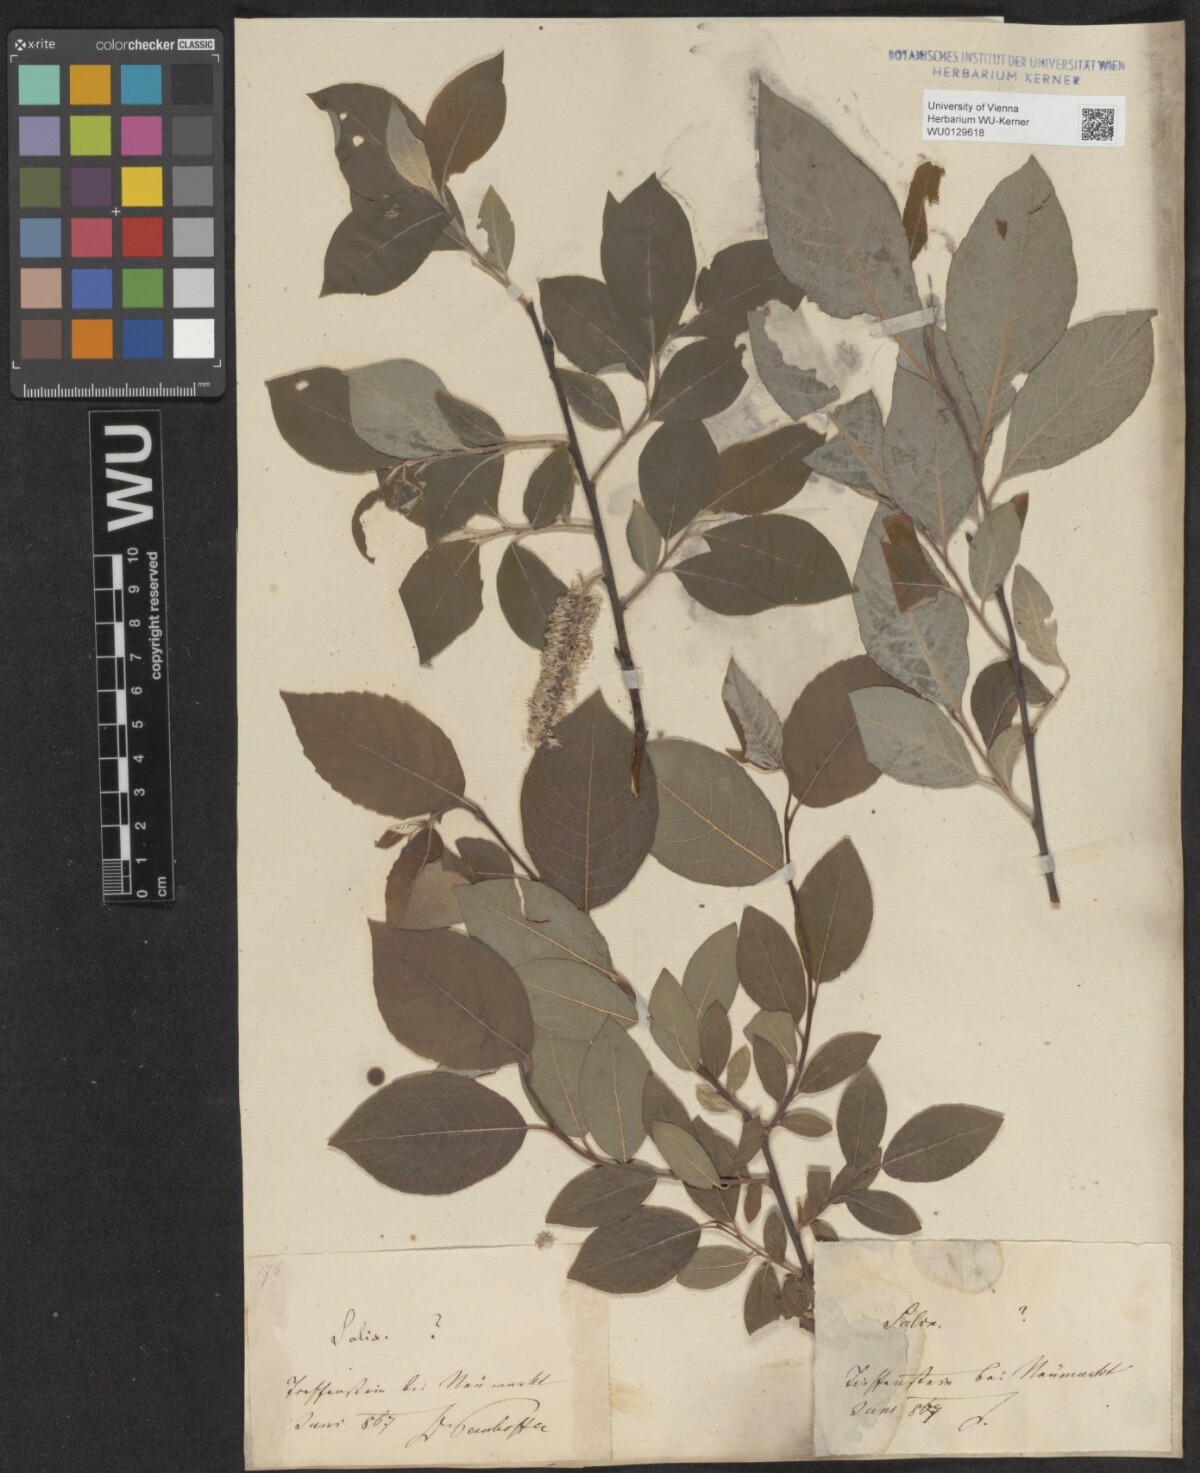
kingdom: Plantae
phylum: Tracheophyta
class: Magnoliopsida
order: Malpighiales
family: Salicaceae
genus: Salix
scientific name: Salix caprea
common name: Goat willow
